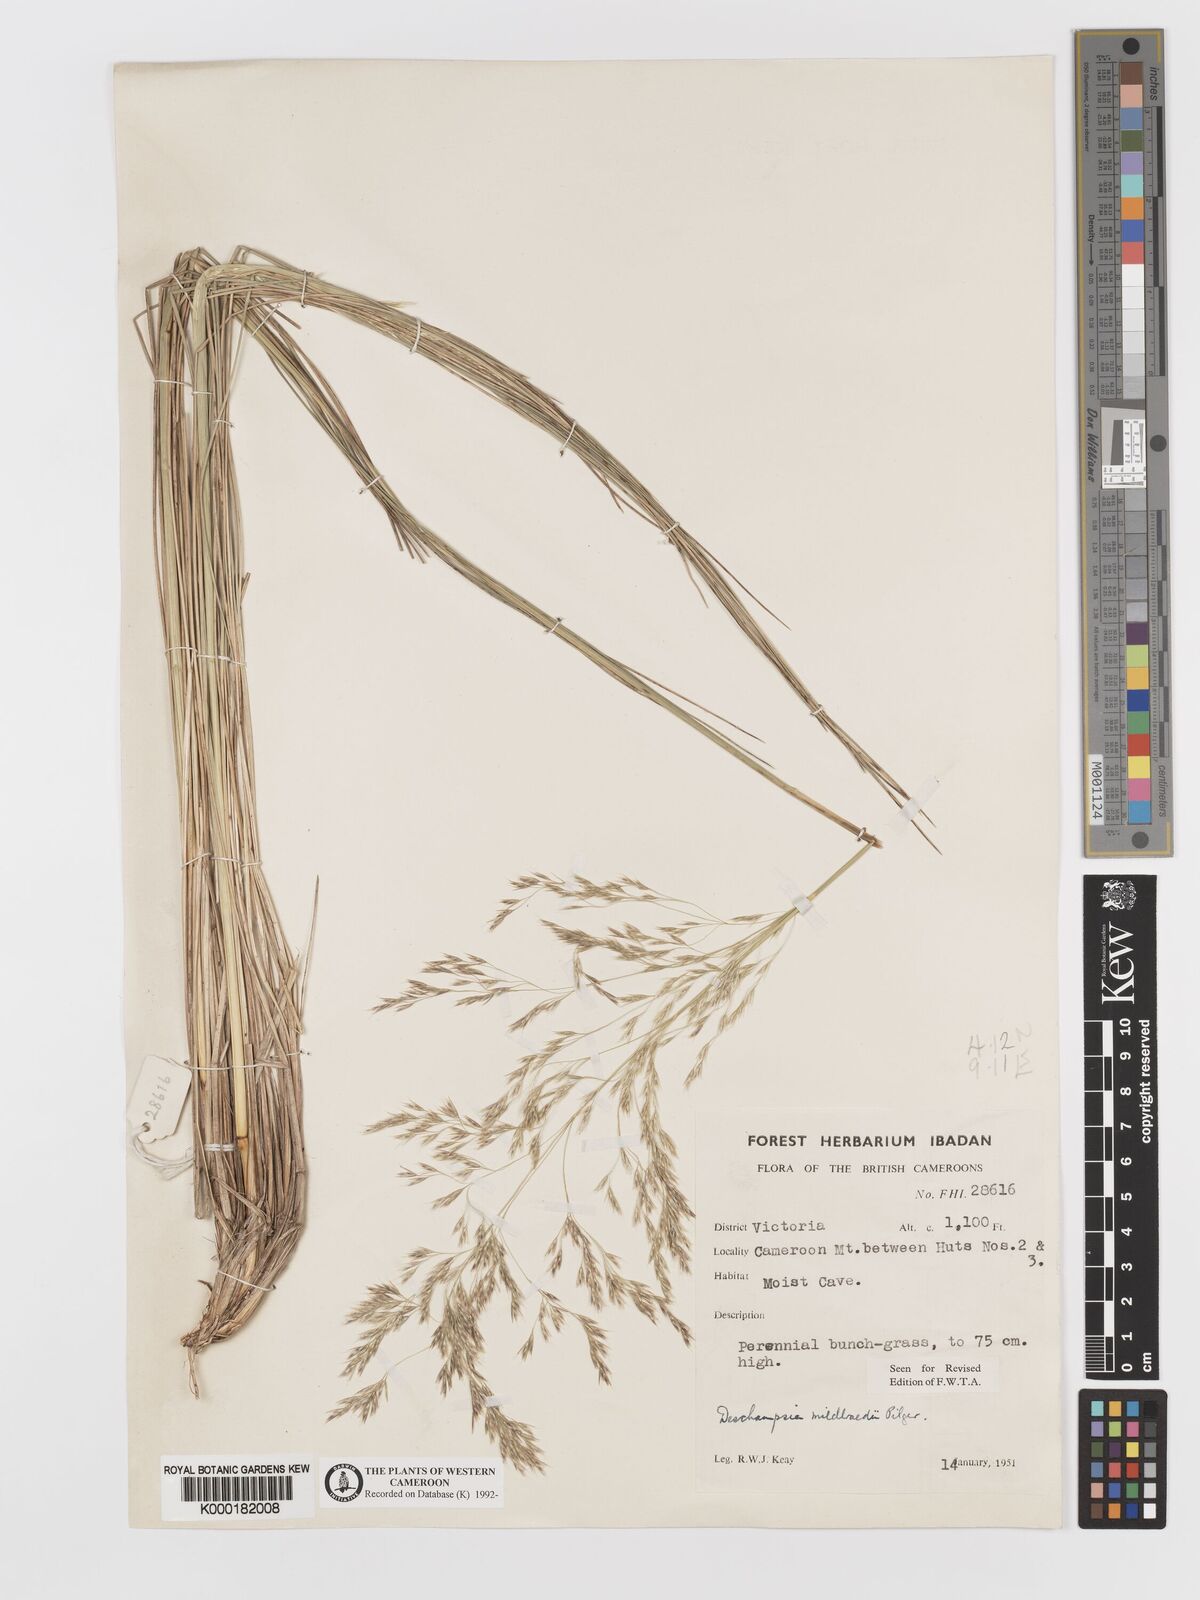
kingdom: Plantae
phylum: Tracheophyta
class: Liliopsida
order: Poales
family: Poaceae
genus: Deschampsia
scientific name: Deschampsia mildbraedii
